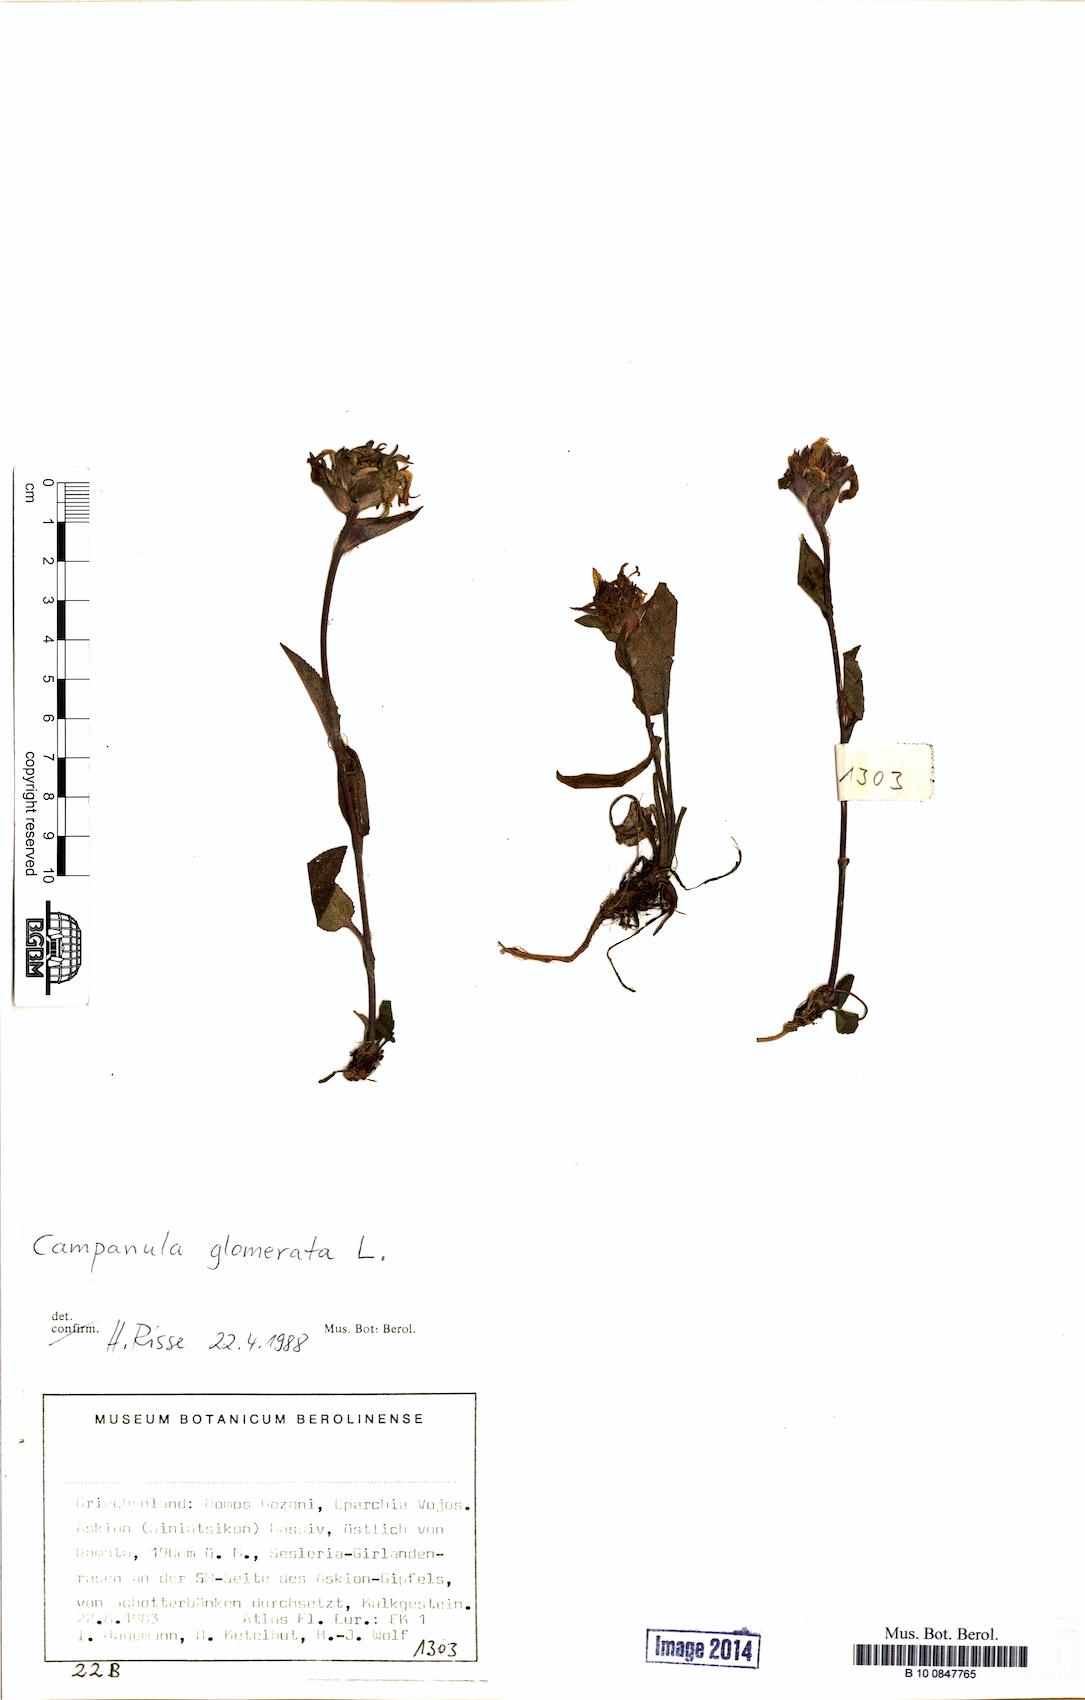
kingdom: Plantae
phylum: Tracheophyta
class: Magnoliopsida
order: Asterales
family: Campanulaceae
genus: Campanula
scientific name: Campanula glomerata
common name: Clustered bellflower
